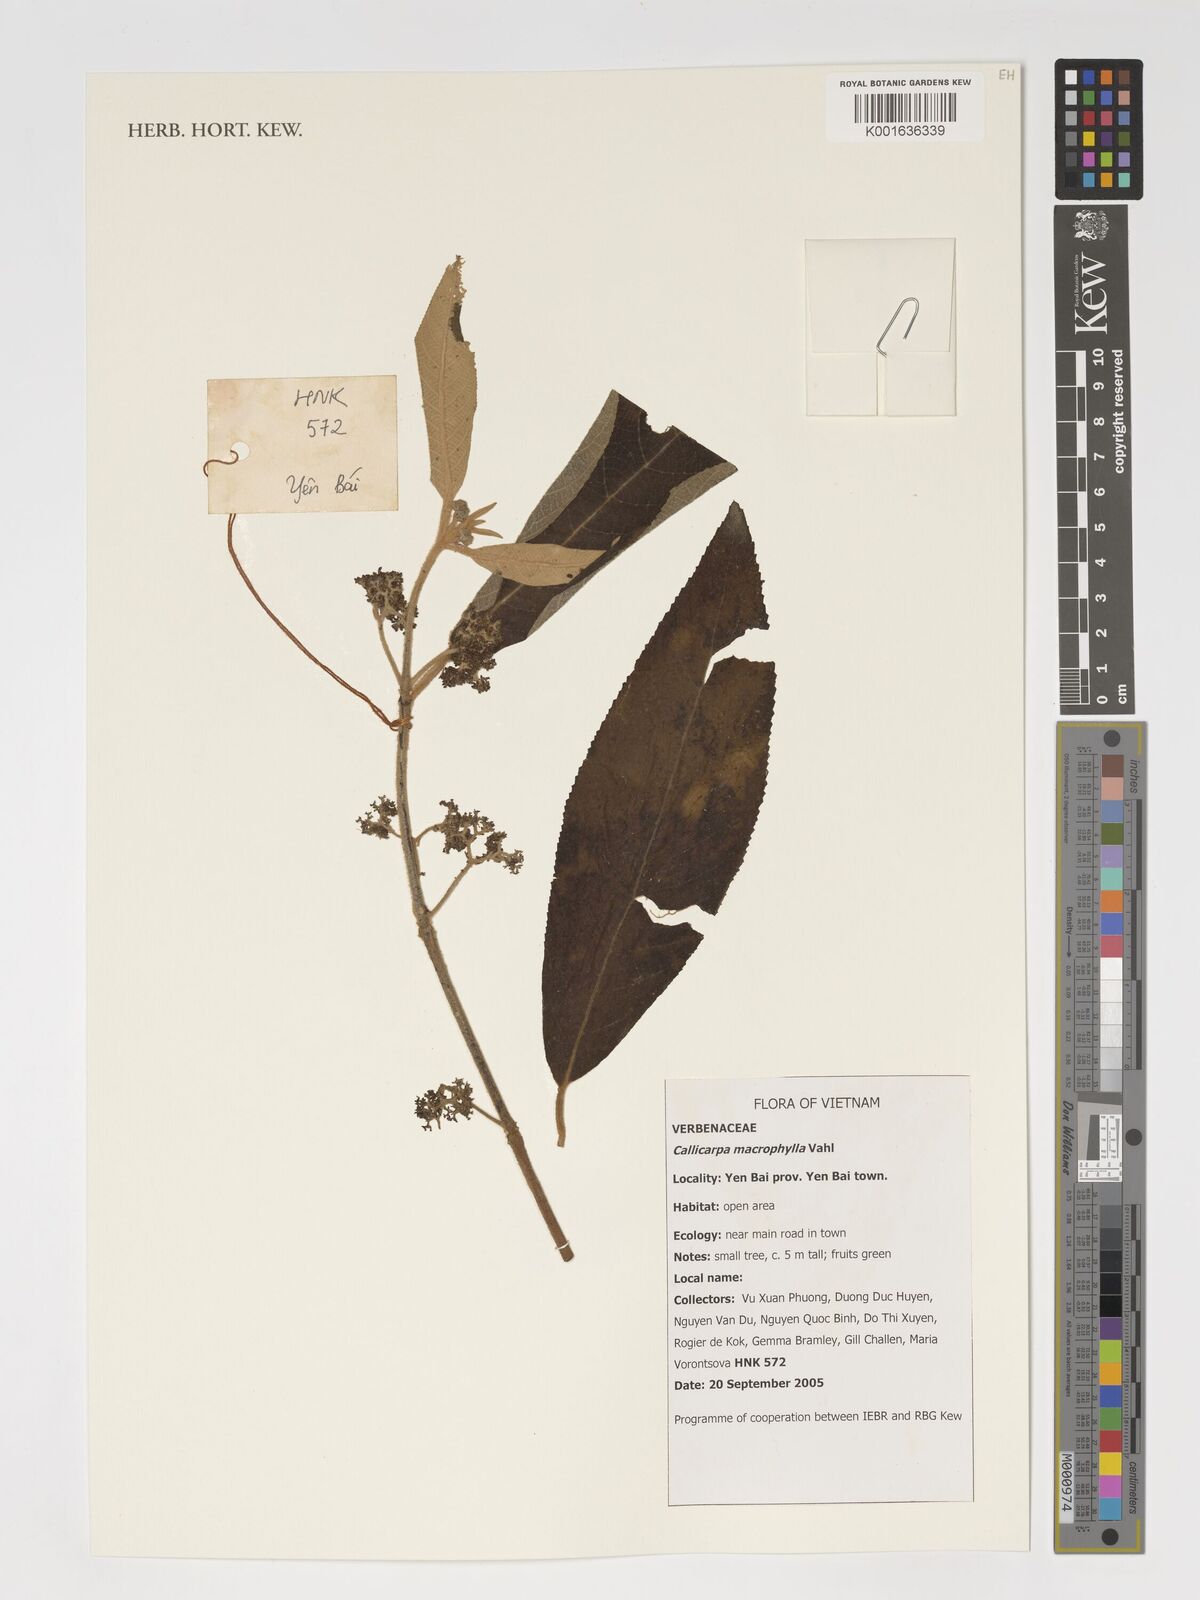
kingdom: Plantae
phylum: Tracheophyta
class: Magnoliopsida
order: Lamiales
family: Lamiaceae
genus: Callicarpa
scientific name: Callicarpa macrophylla
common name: Urn-fruit beauty-berry
